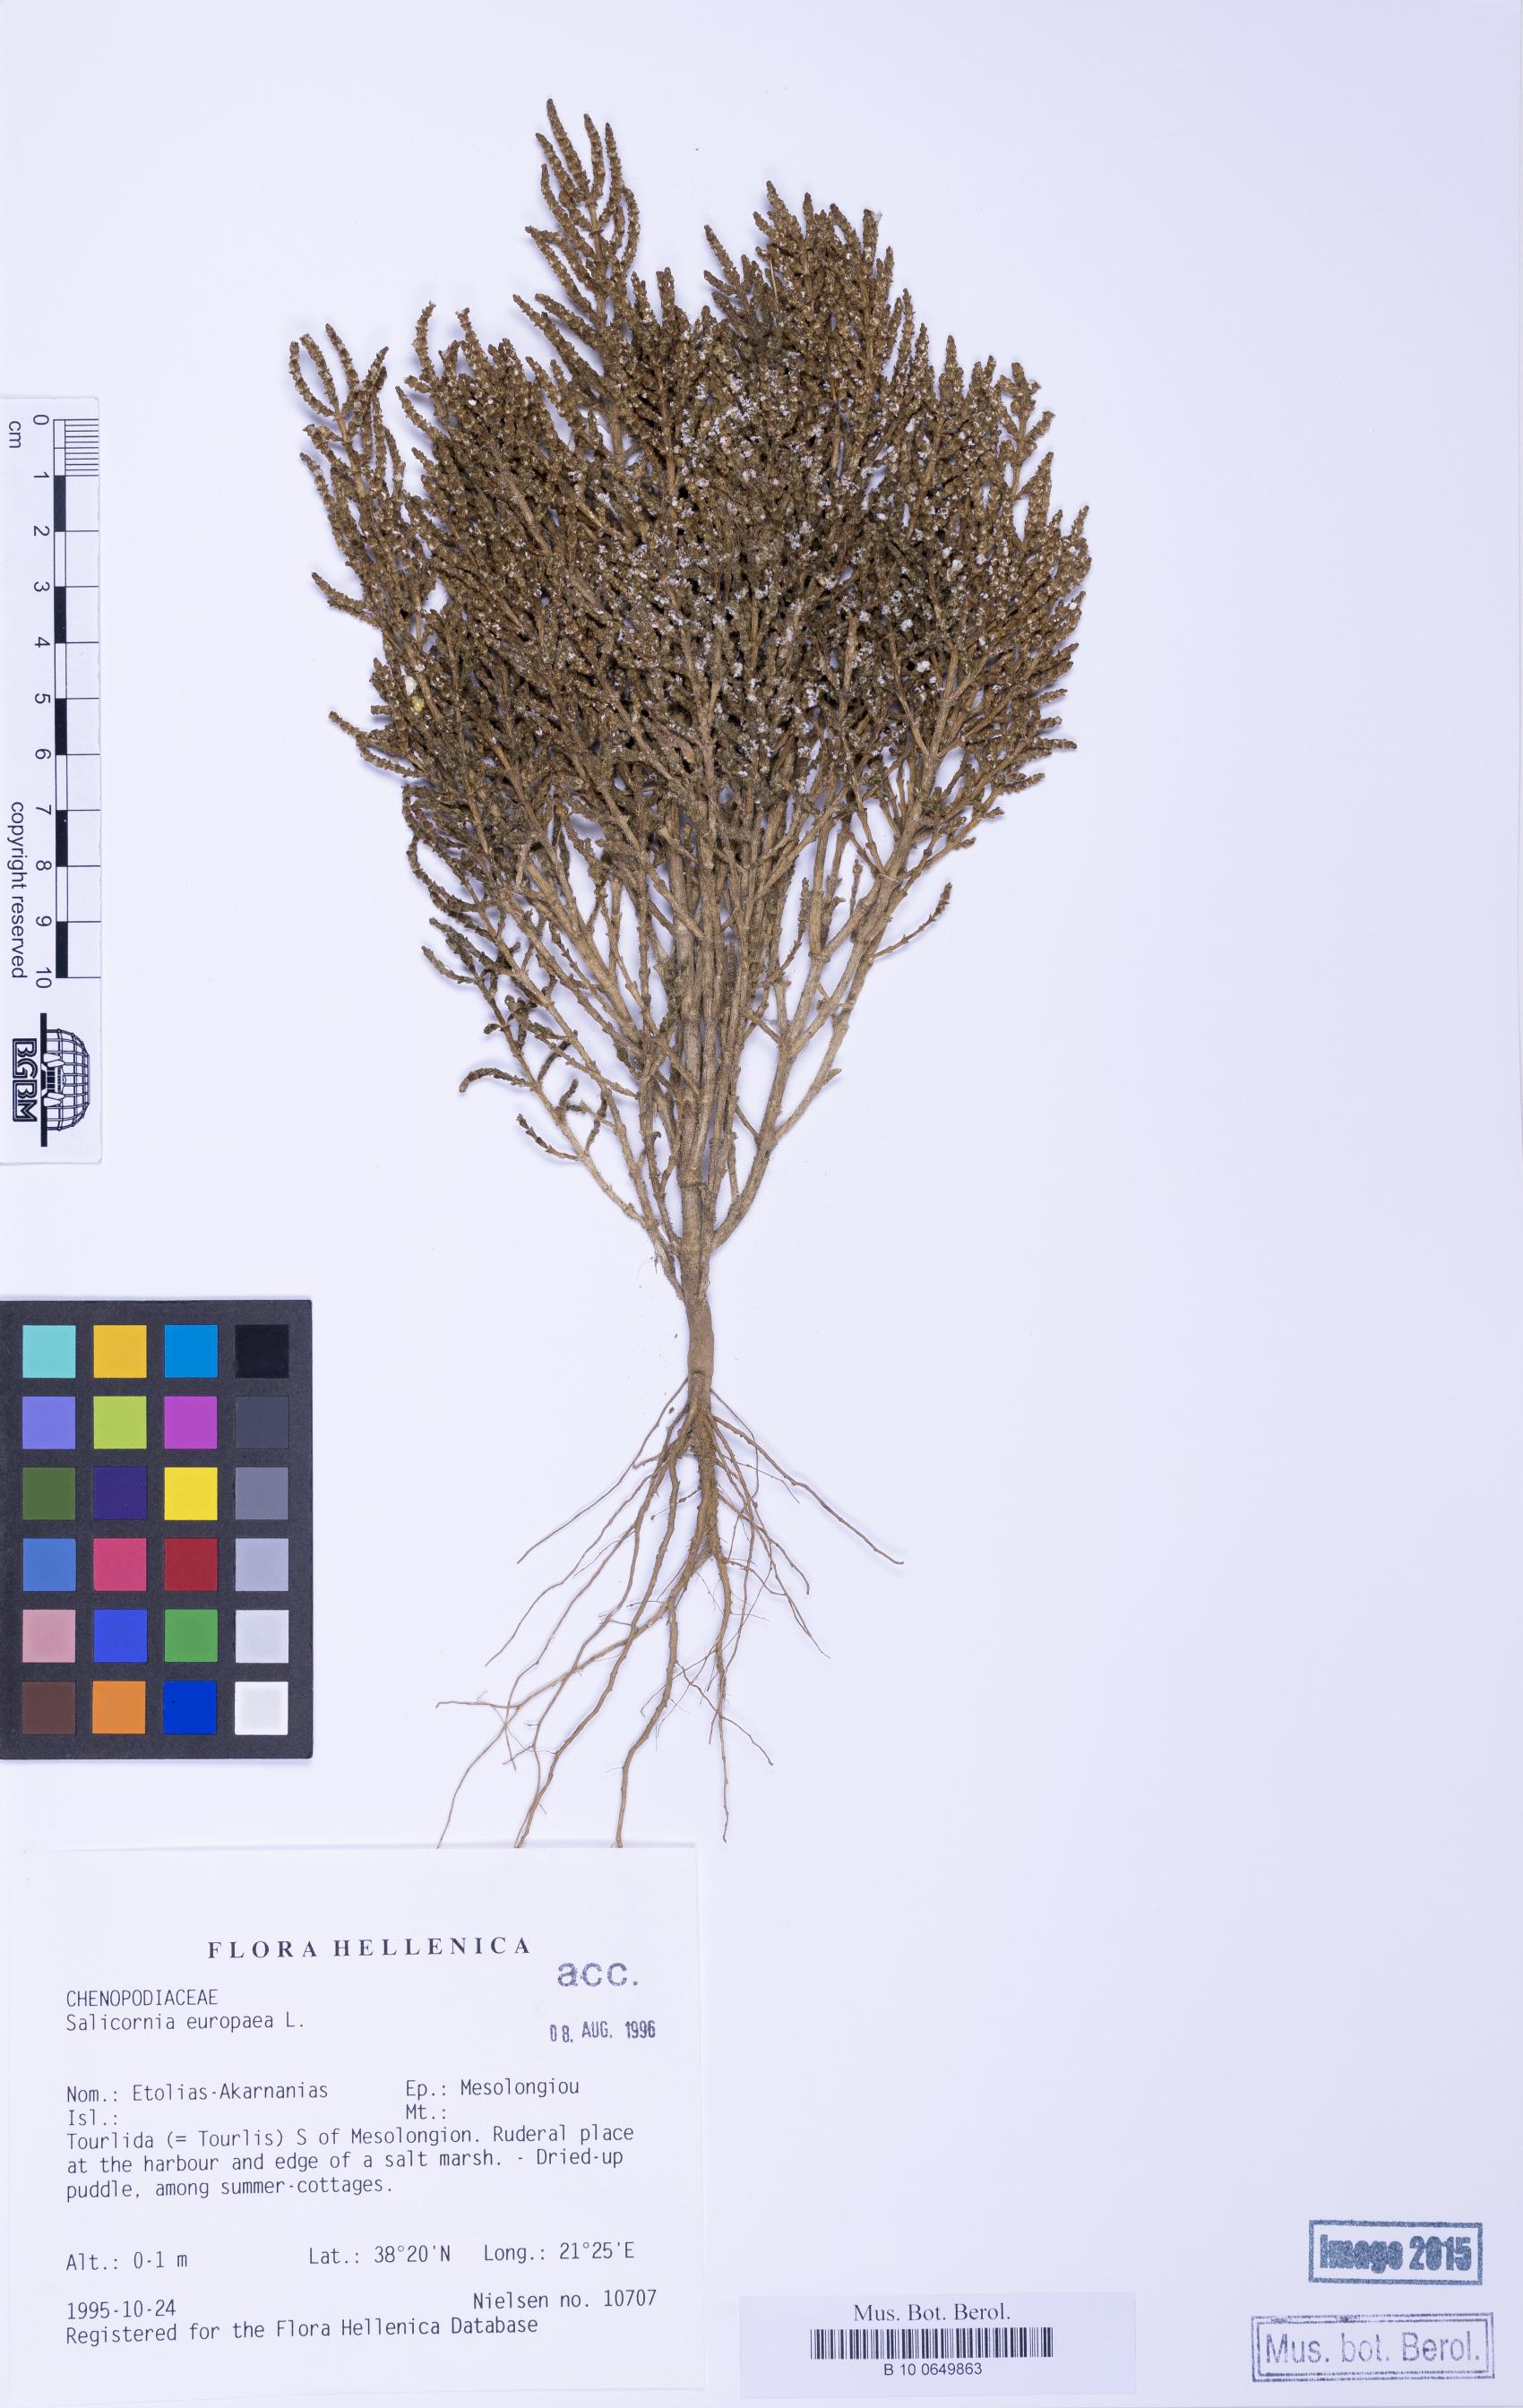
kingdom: Plantae
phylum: Tracheophyta
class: Magnoliopsida
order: Caryophyllales
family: Amaranthaceae
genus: Salicornia
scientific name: Salicornia perennans
